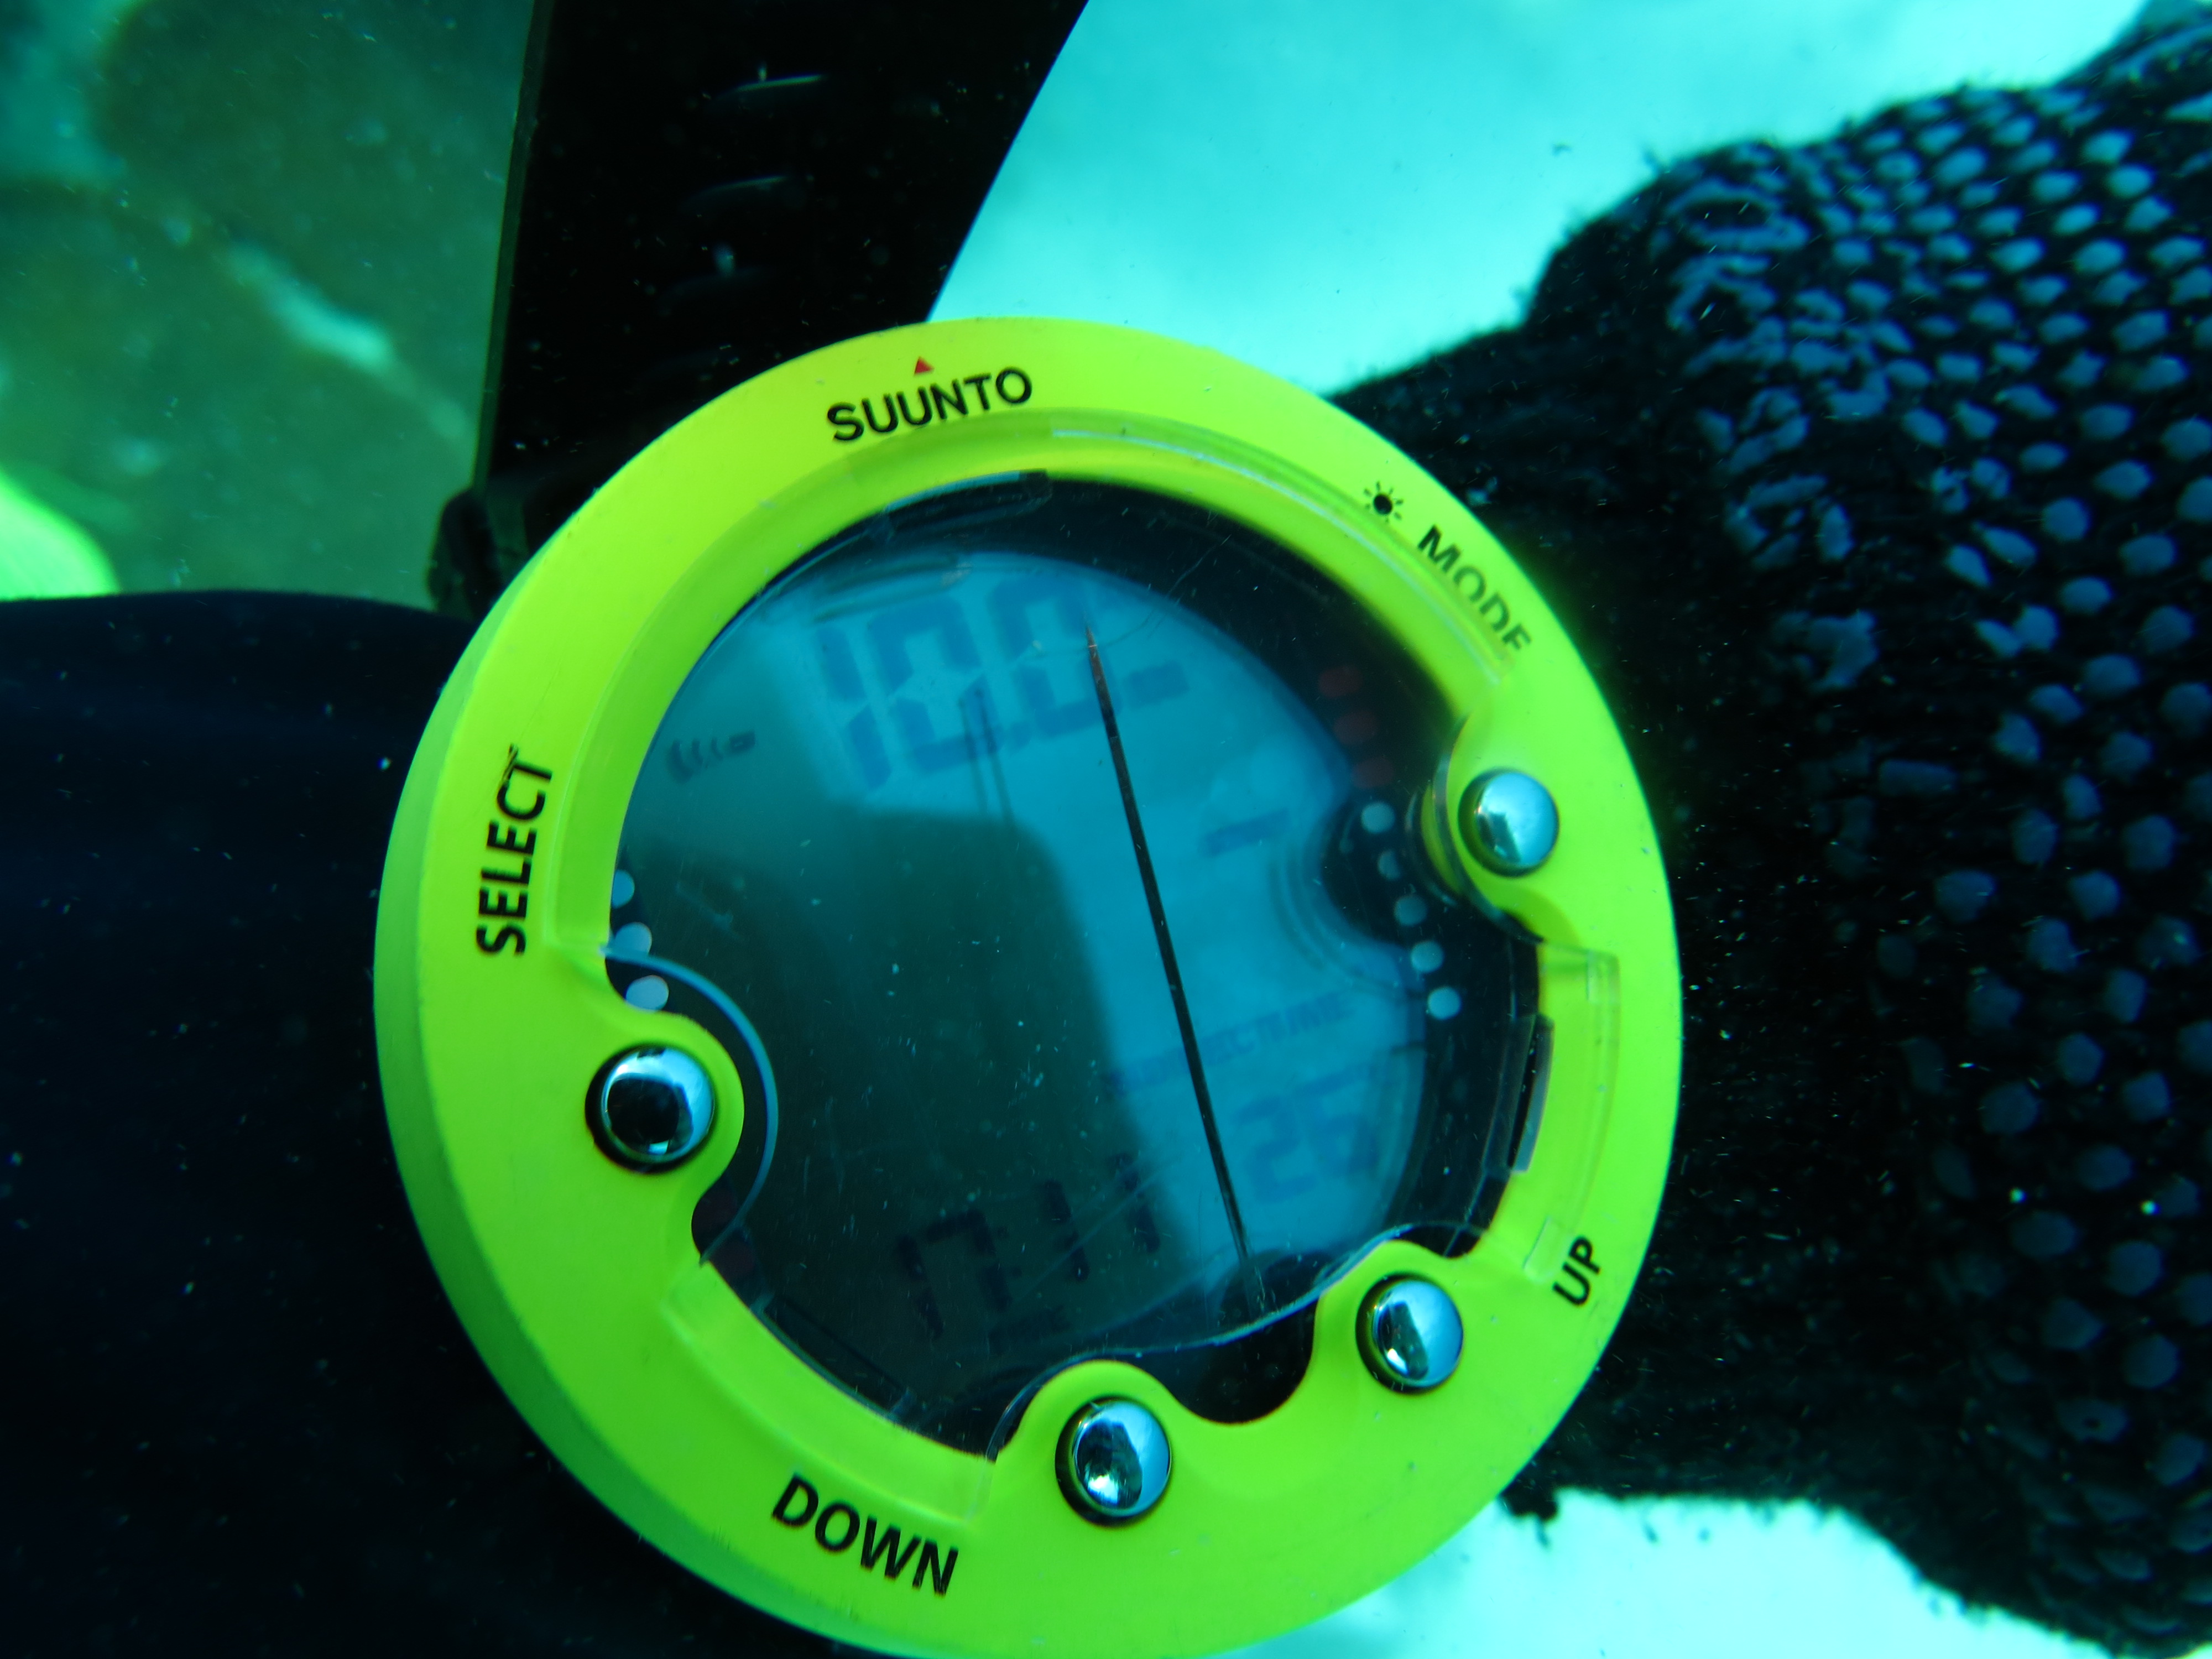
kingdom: Animalia
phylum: Porifera
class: Demospongiae
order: Poecilosclerida
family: Mycalidae
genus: Mycale
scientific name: Mycale laxissima
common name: Strawberry vase sponge
